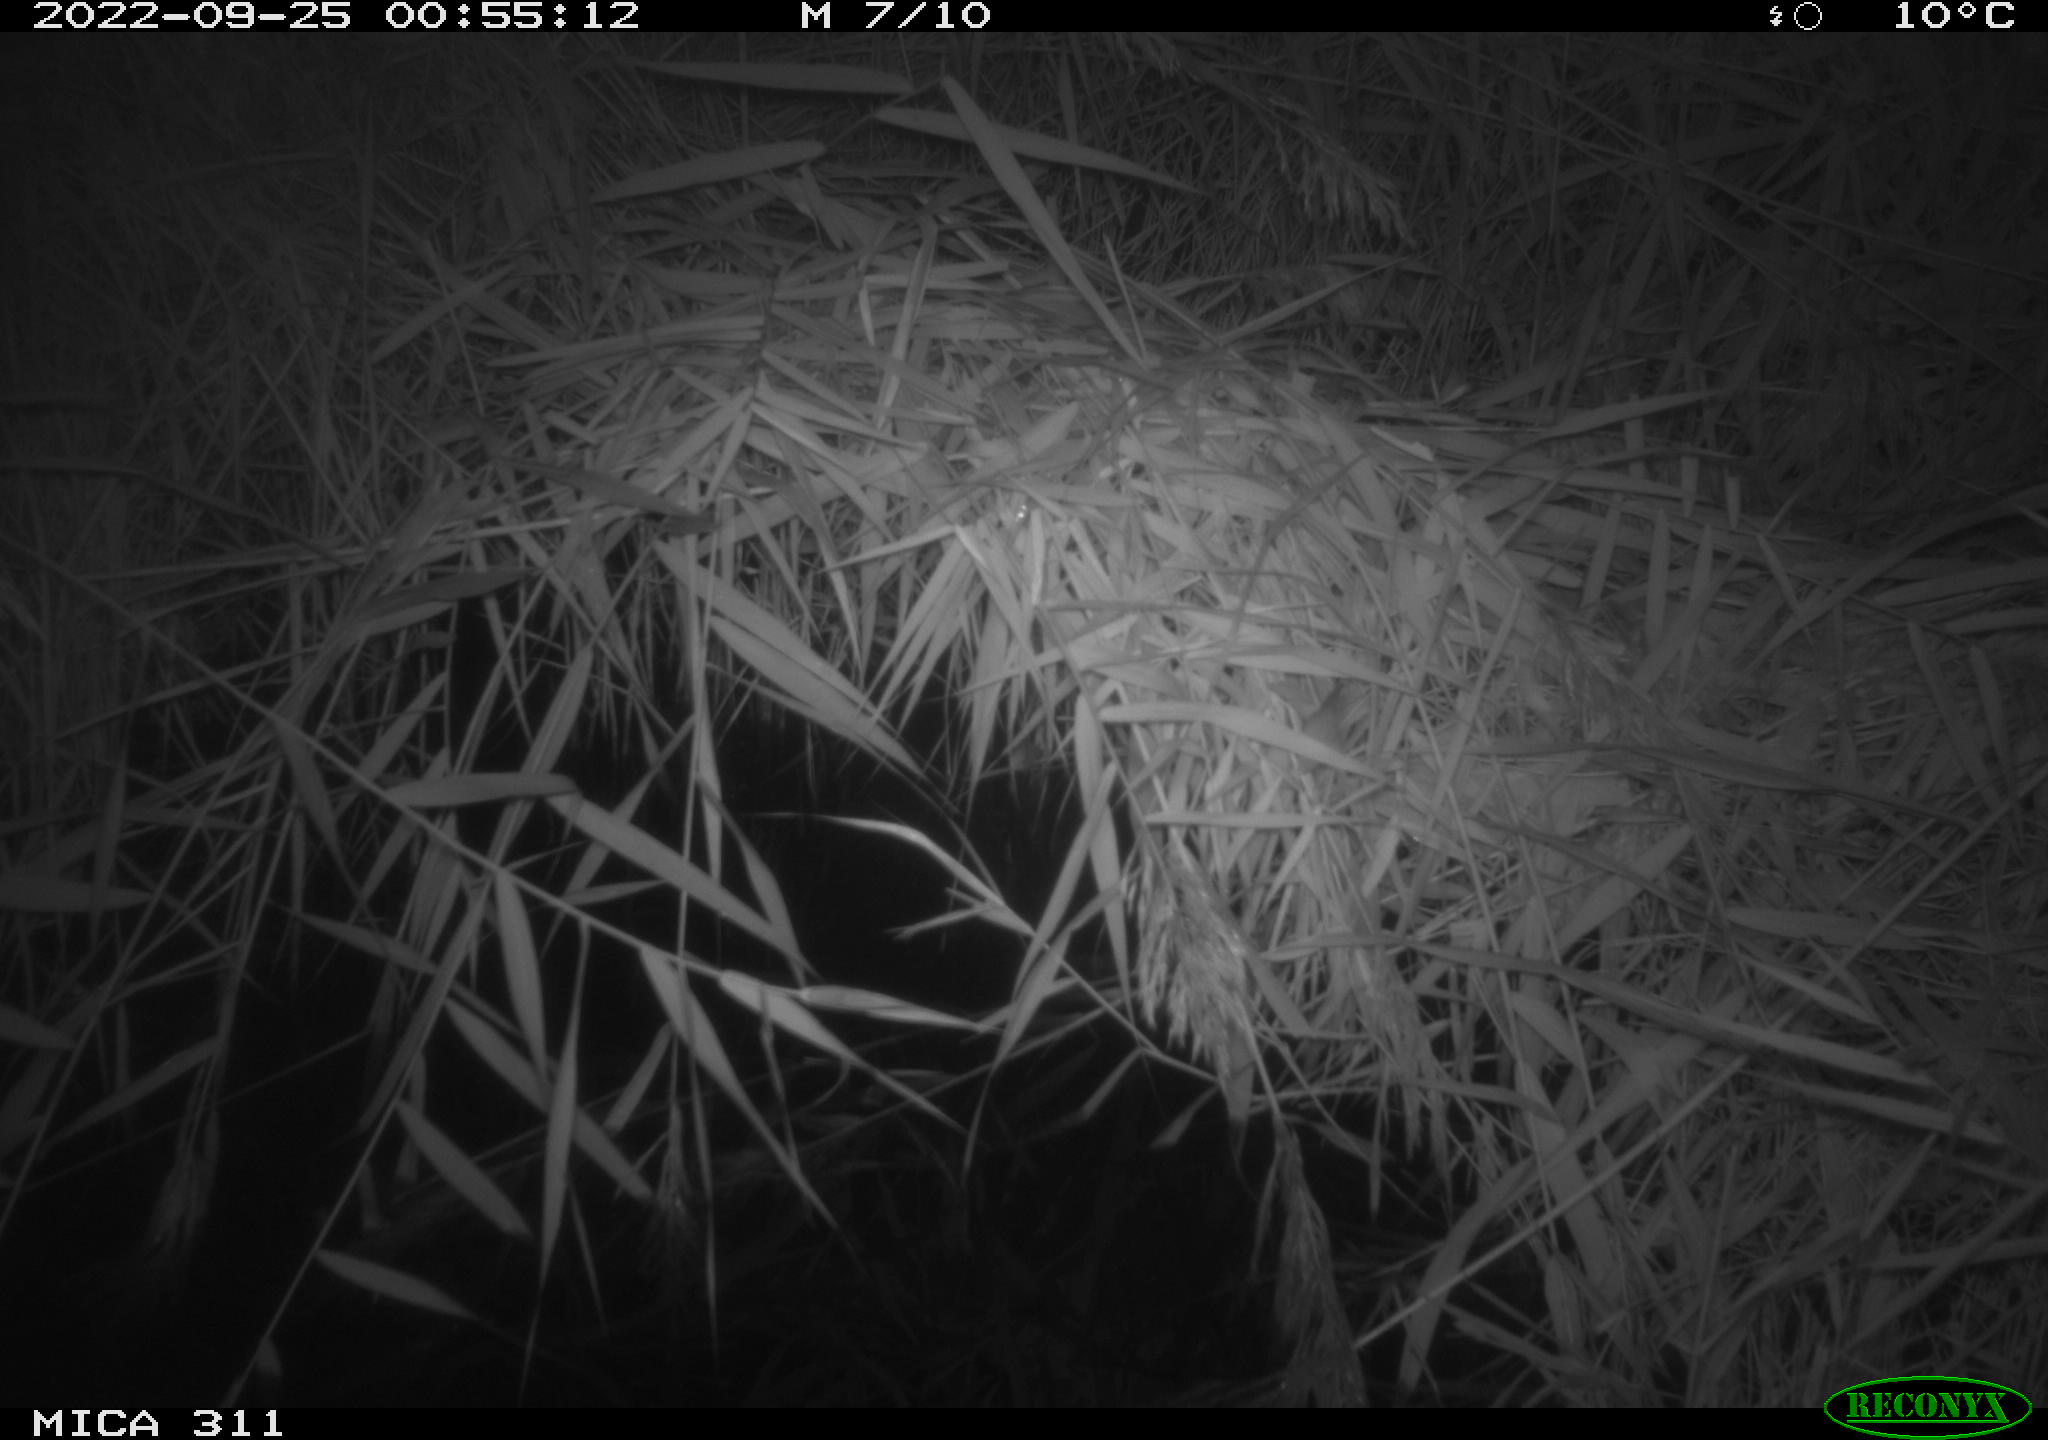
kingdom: Animalia
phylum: Chordata
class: Mammalia
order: Rodentia
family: Muridae
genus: Rattus
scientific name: Rattus norvegicus
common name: Brown rat
